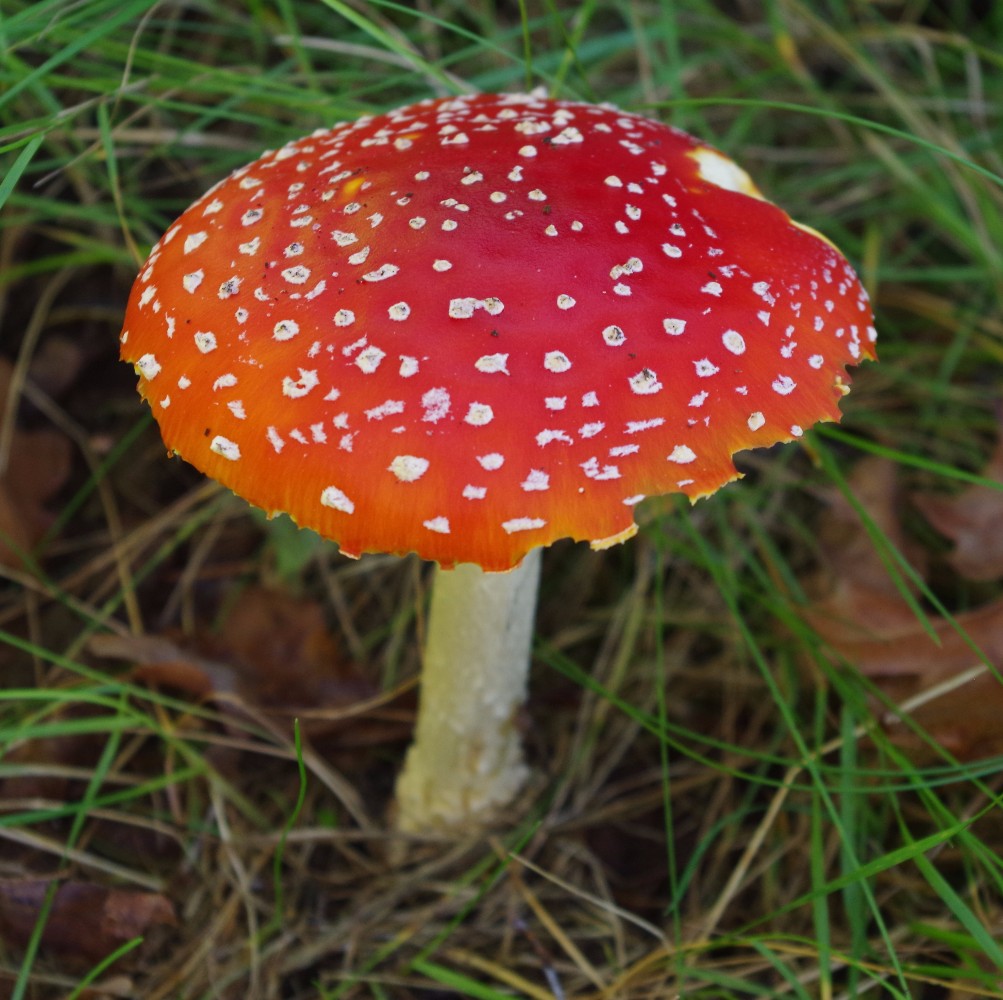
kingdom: Fungi
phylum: Basidiomycota
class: Agaricomycetes
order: Agaricales
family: Amanitaceae
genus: Amanita
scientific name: Amanita muscaria
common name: rød fluesvamp
